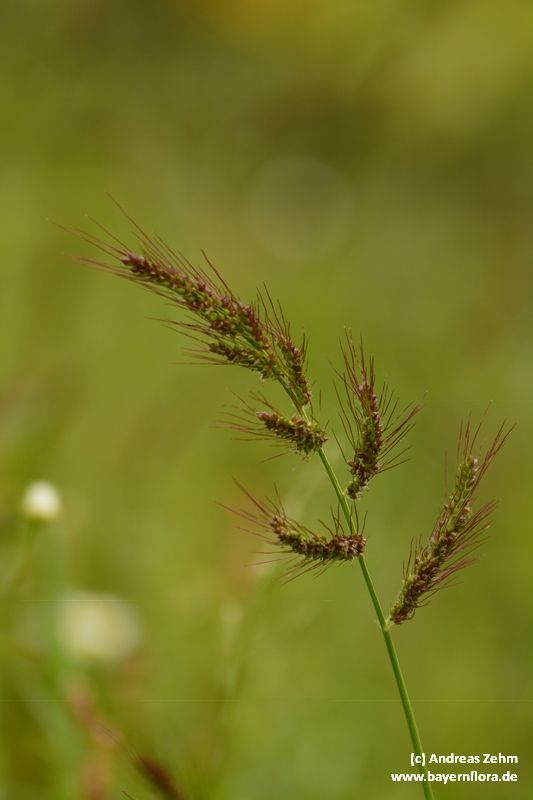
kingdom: Plantae
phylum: Tracheophyta
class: Liliopsida
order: Poales
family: Poaceae
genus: Echinochloa
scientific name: Echinochloa crus-galli
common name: Cockspur
